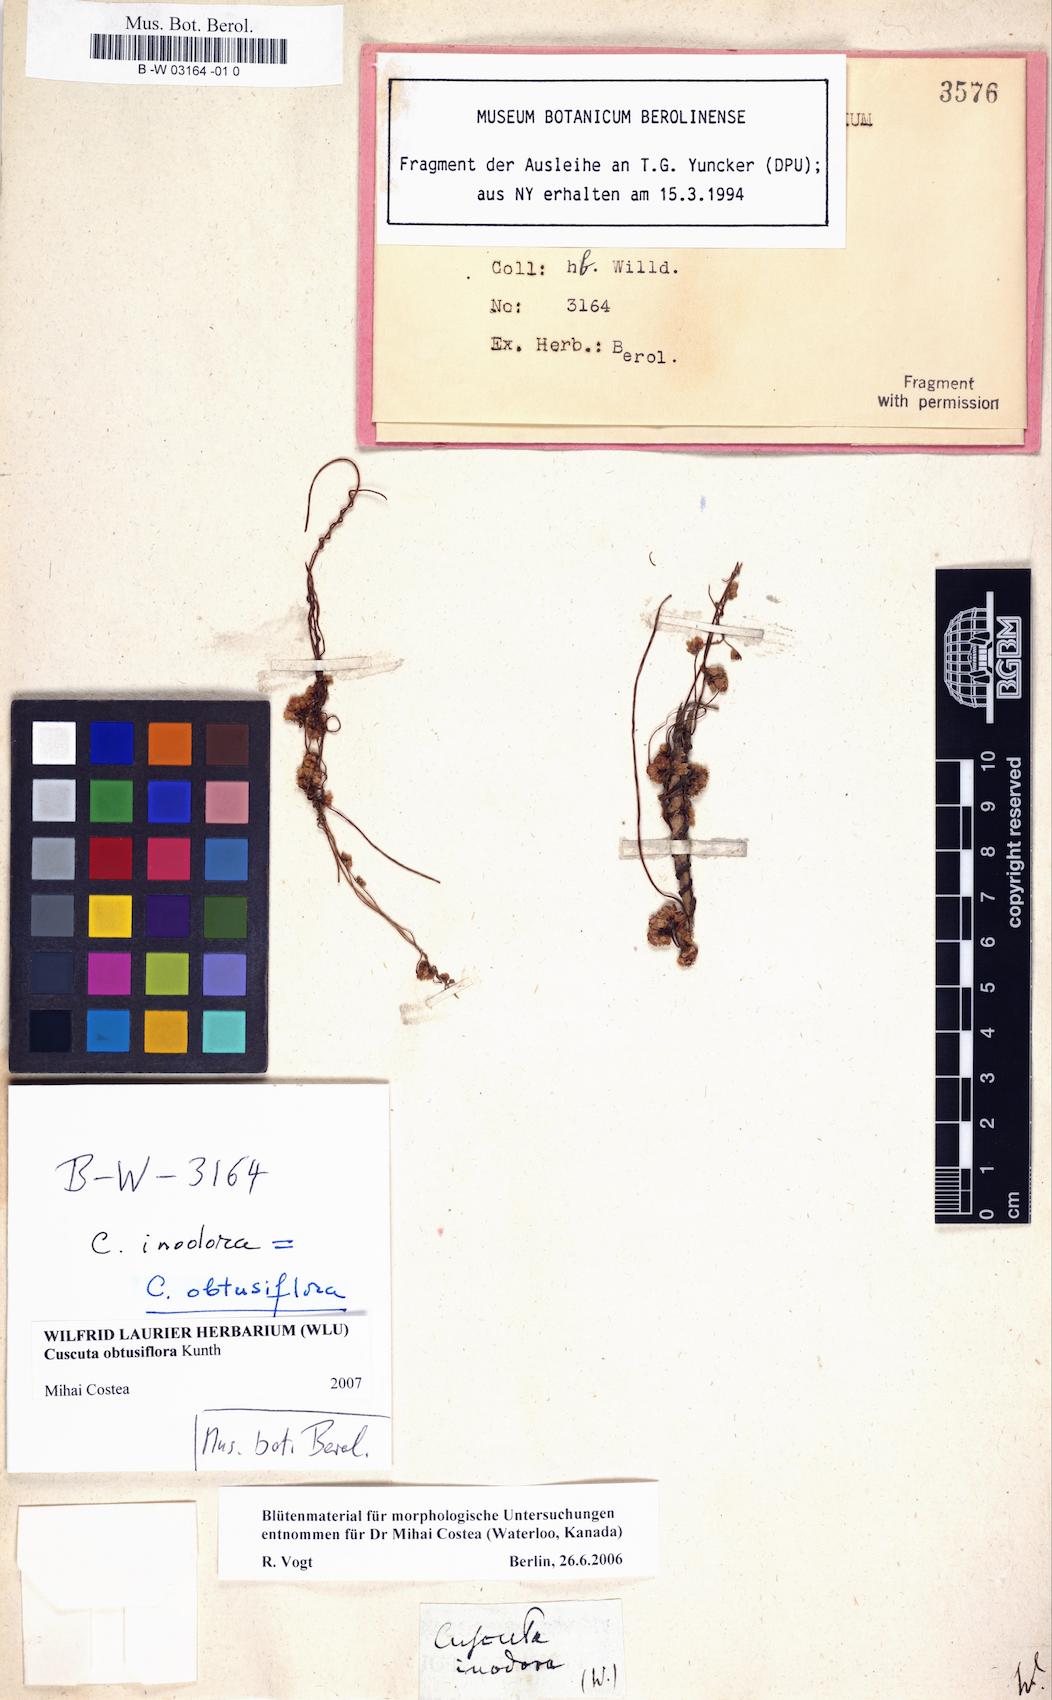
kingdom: Plantae
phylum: Tracheophyta
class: Magnoliopsida
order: Solanales
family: Convolvulaceae
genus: Cuscuta
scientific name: Cuscuta obtusiflora
